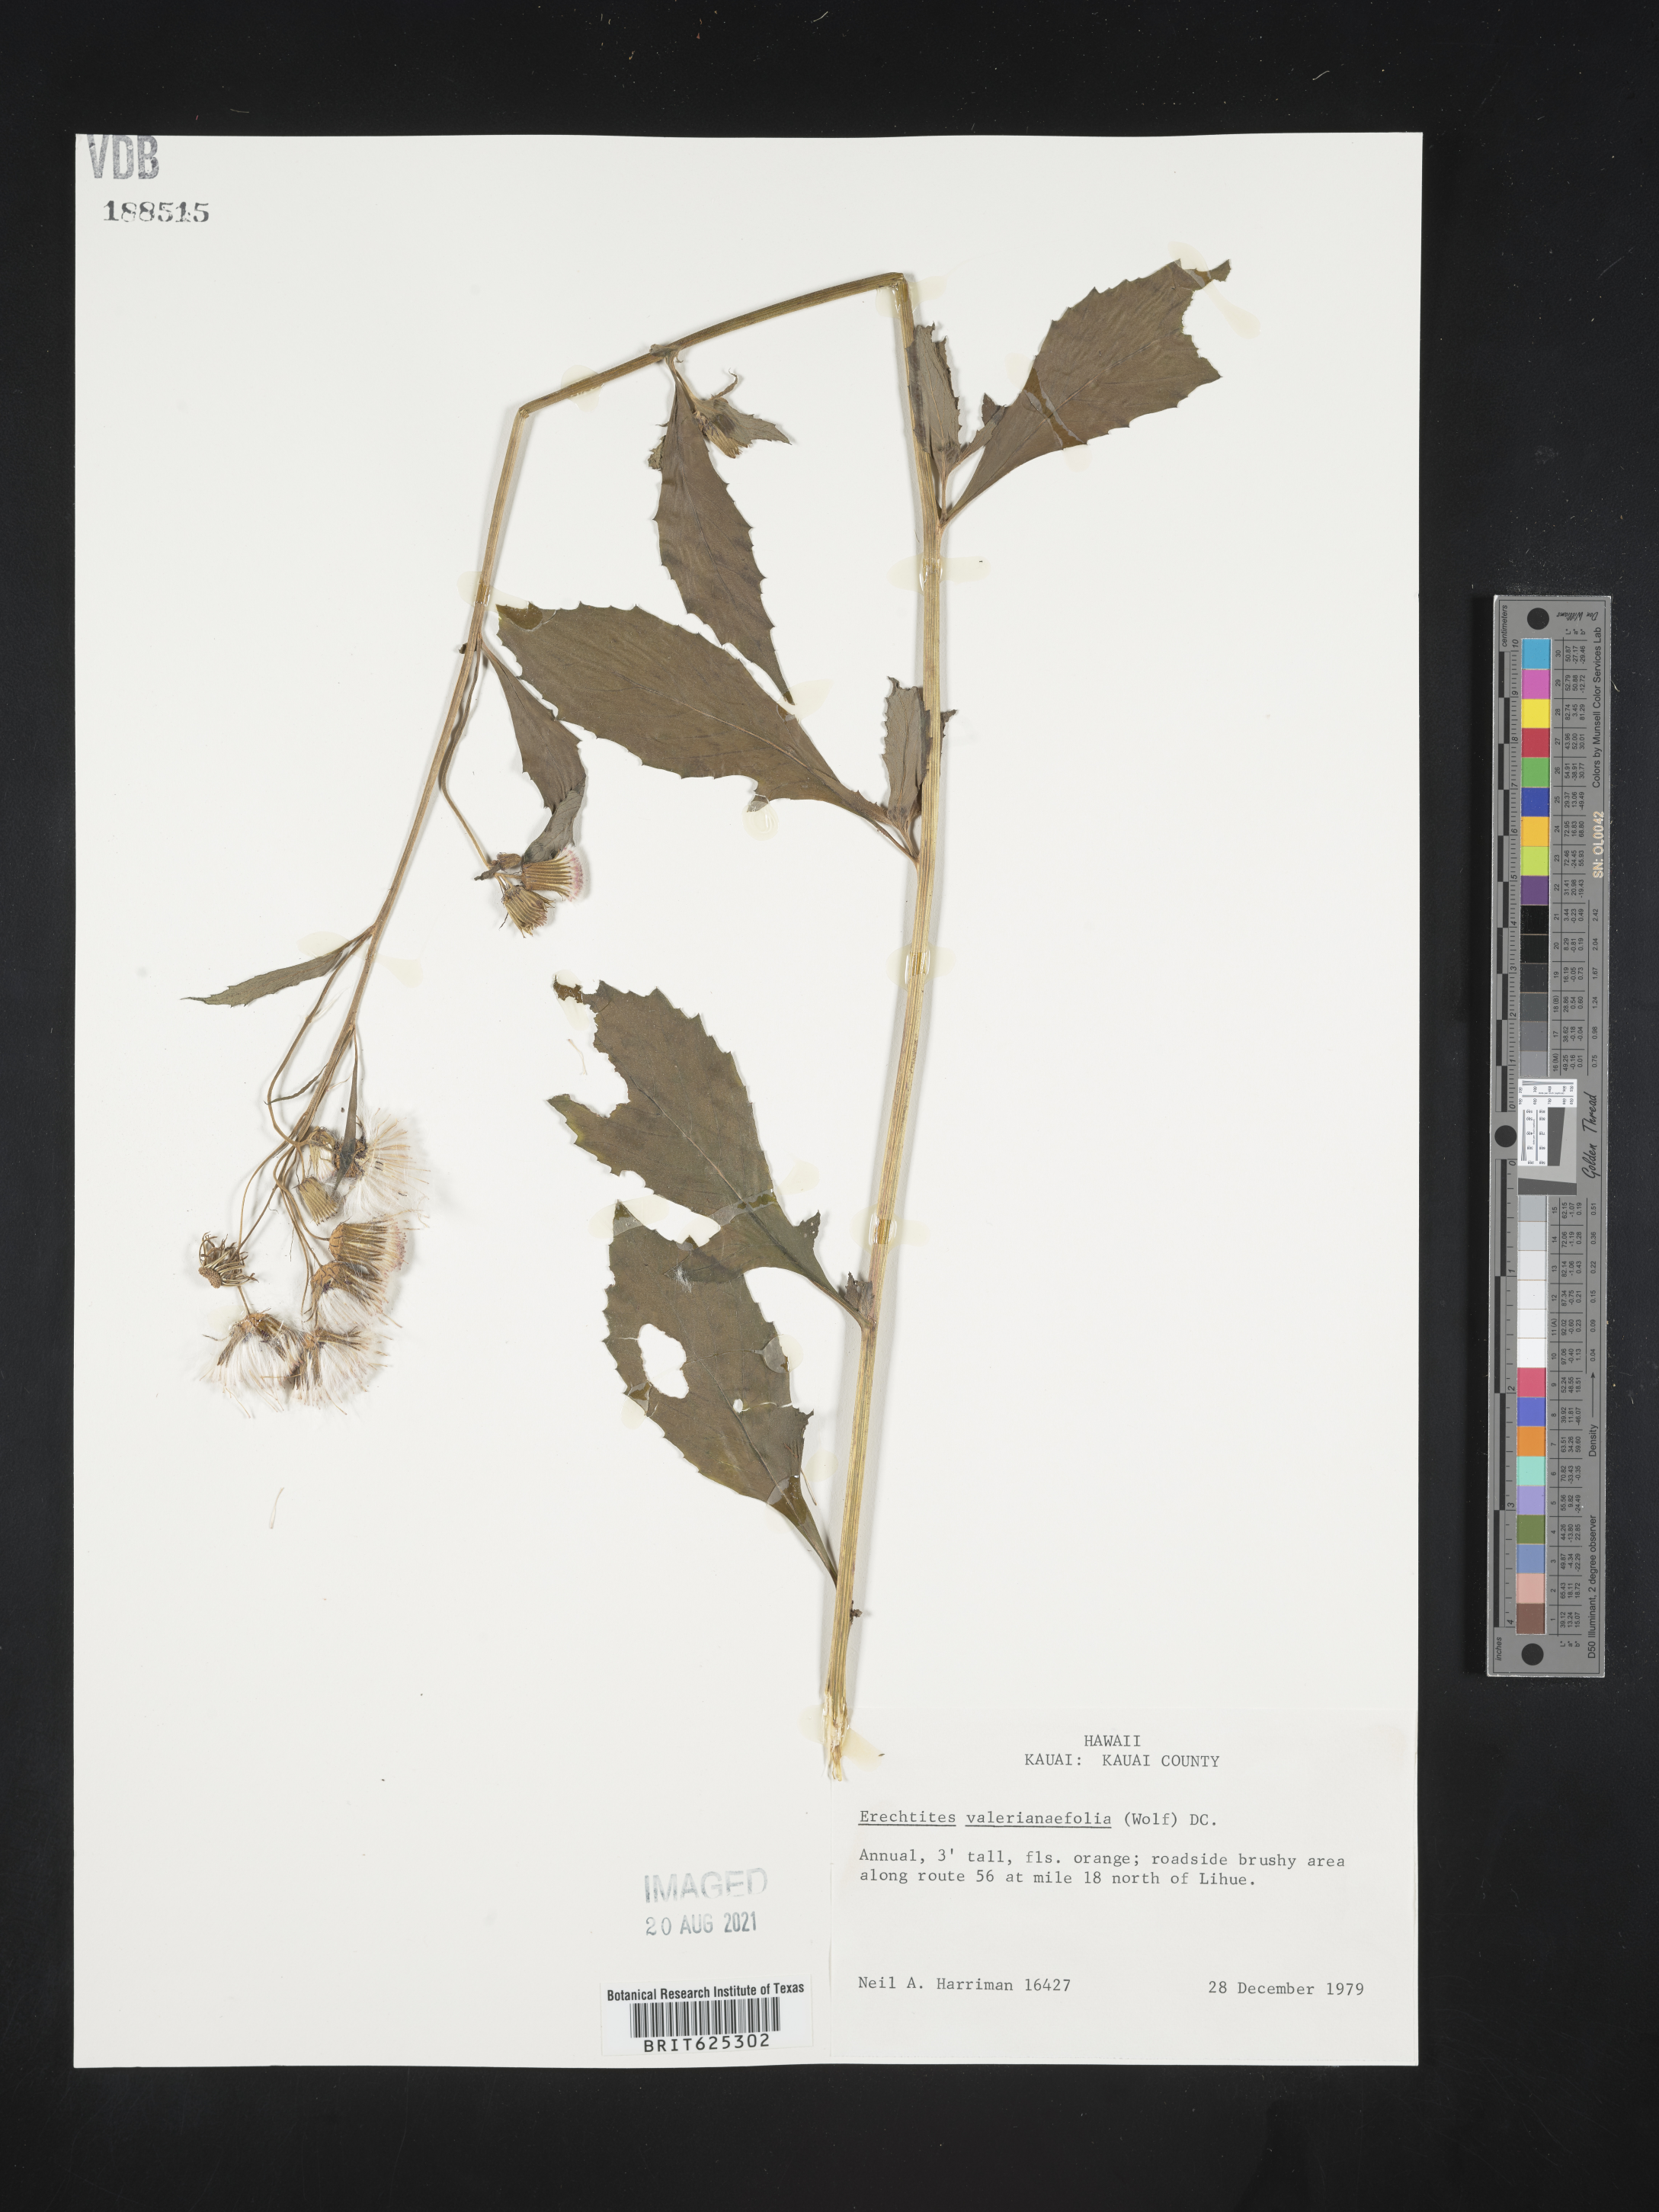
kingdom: Plantae
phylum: Tracheophyta
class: Magnoliopsida
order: Asterales
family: Asteraceae
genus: Erechtites
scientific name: Erechtites valerianifolius
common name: Tropical burnweed
